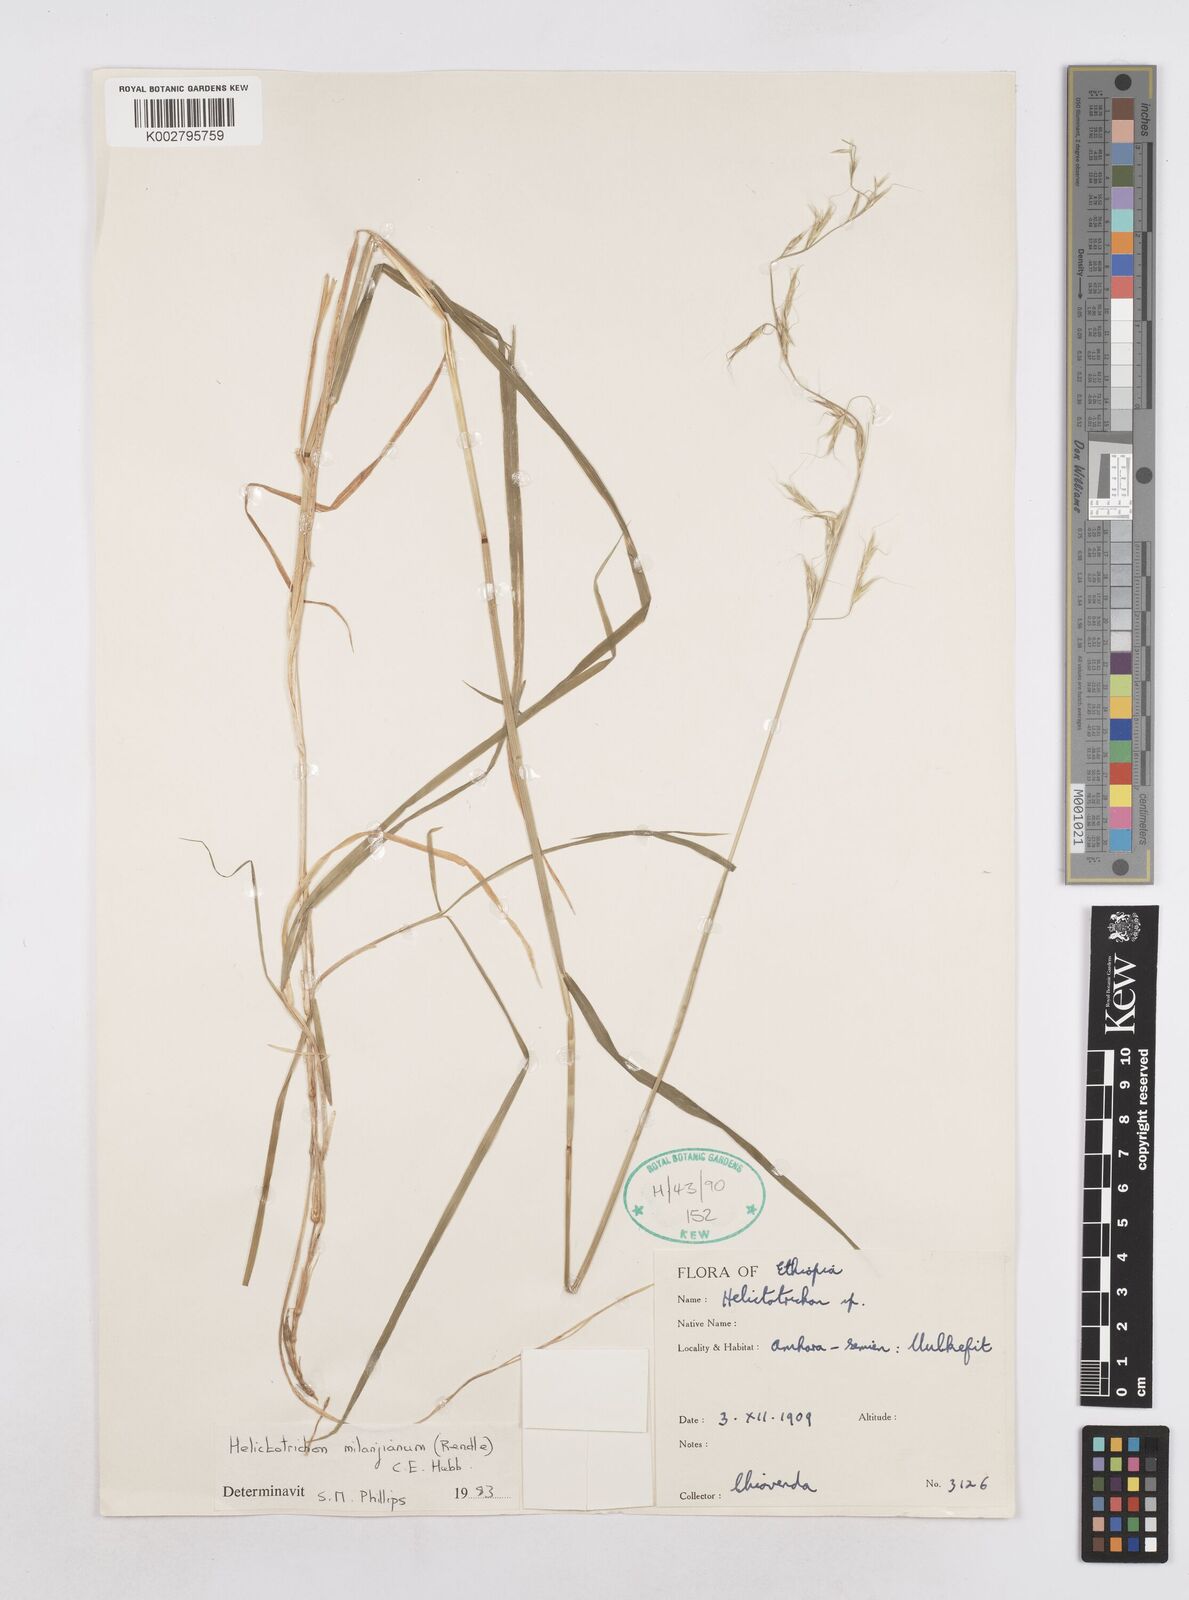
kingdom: Plantae
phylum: Tracheophyta
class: Liliopsida
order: Poales
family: Poaceae
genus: Trisetopsis
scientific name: Trisetopsis milanjiana
